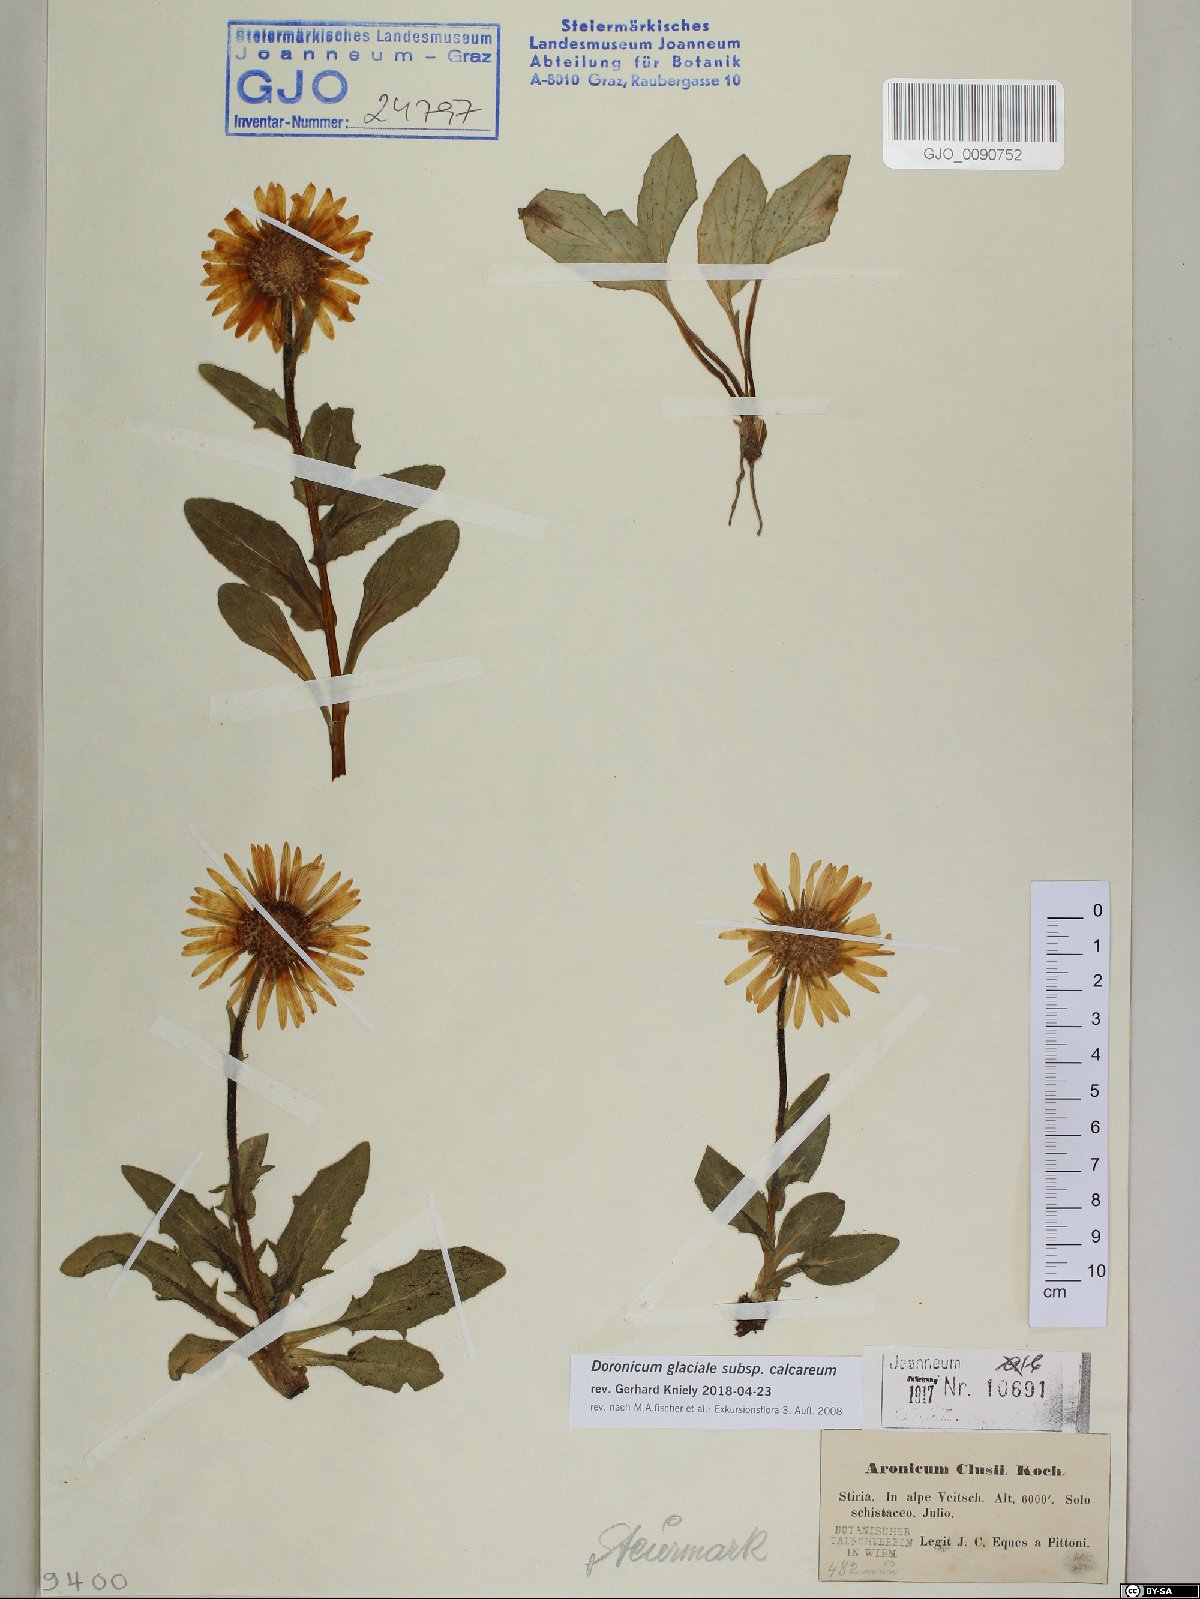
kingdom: Plantae
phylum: Tracheophyta
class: Magnoliopsida
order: Asterales
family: Asteraceae
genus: Doronicum
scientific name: Doronicum glaciale
